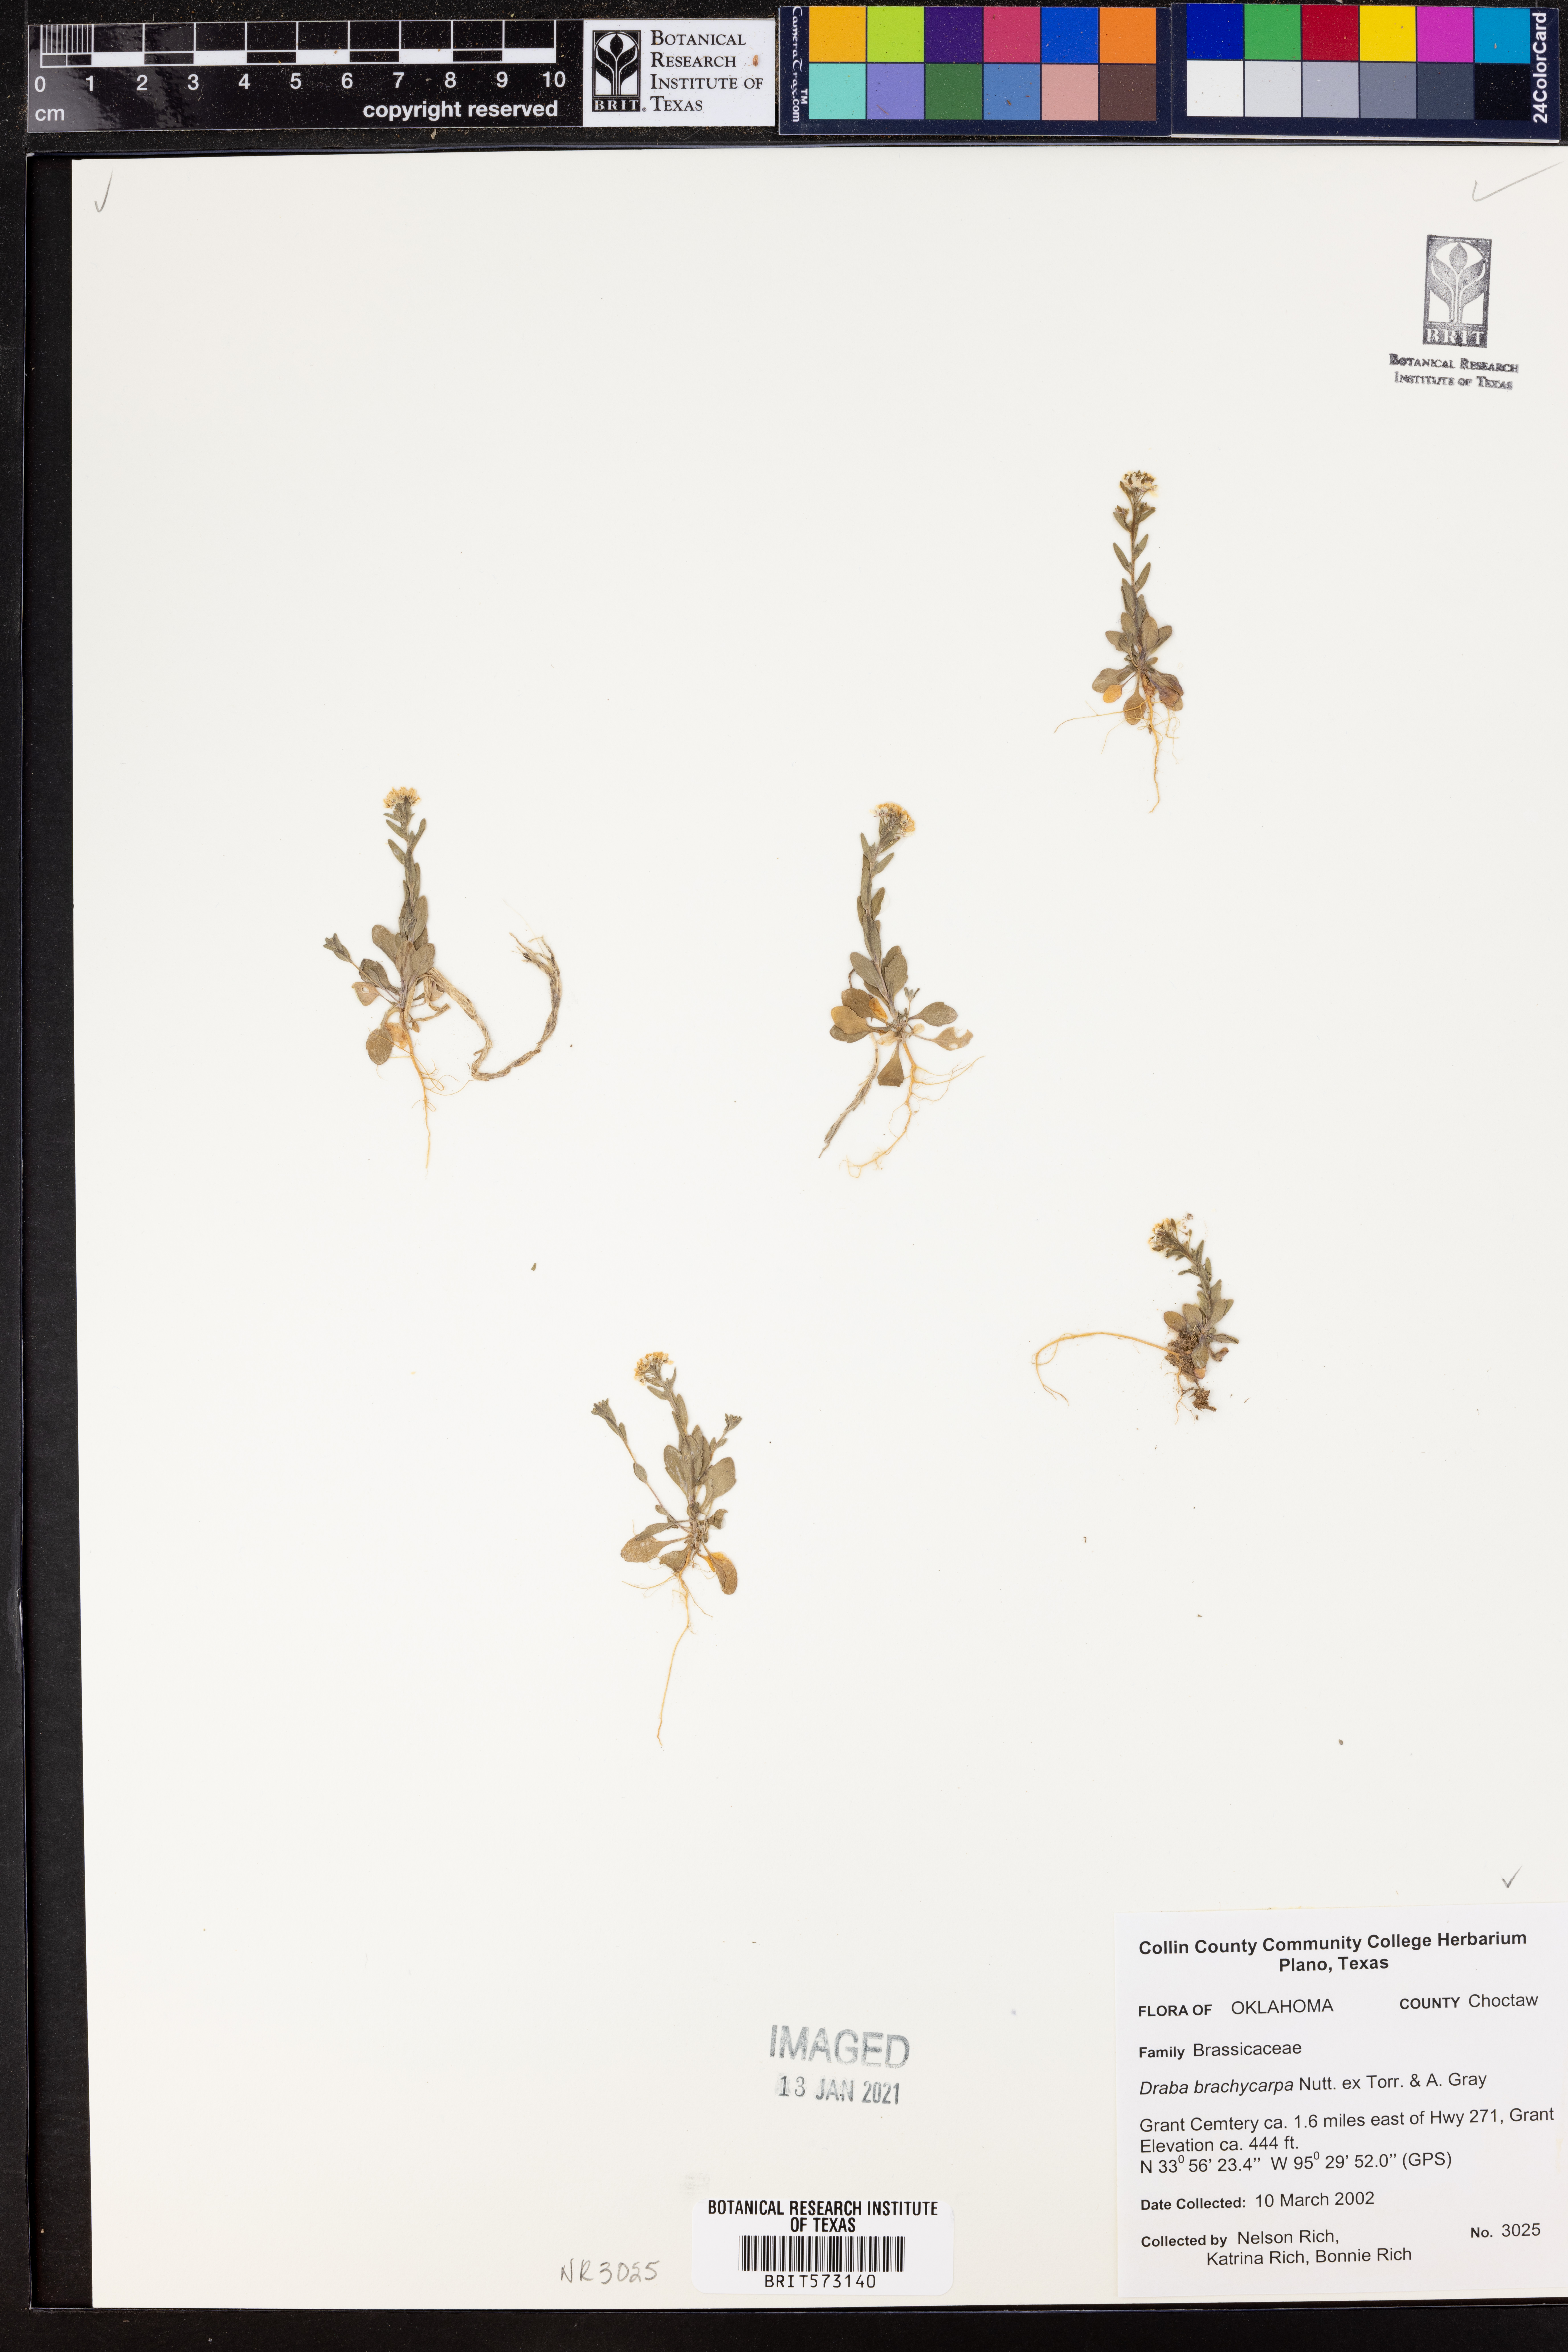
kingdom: Plantae
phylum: Tracheophyta
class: Magnoliopsida
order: Brassicales
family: Brassicaceae
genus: Abdra
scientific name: Abdra brachycarpa
